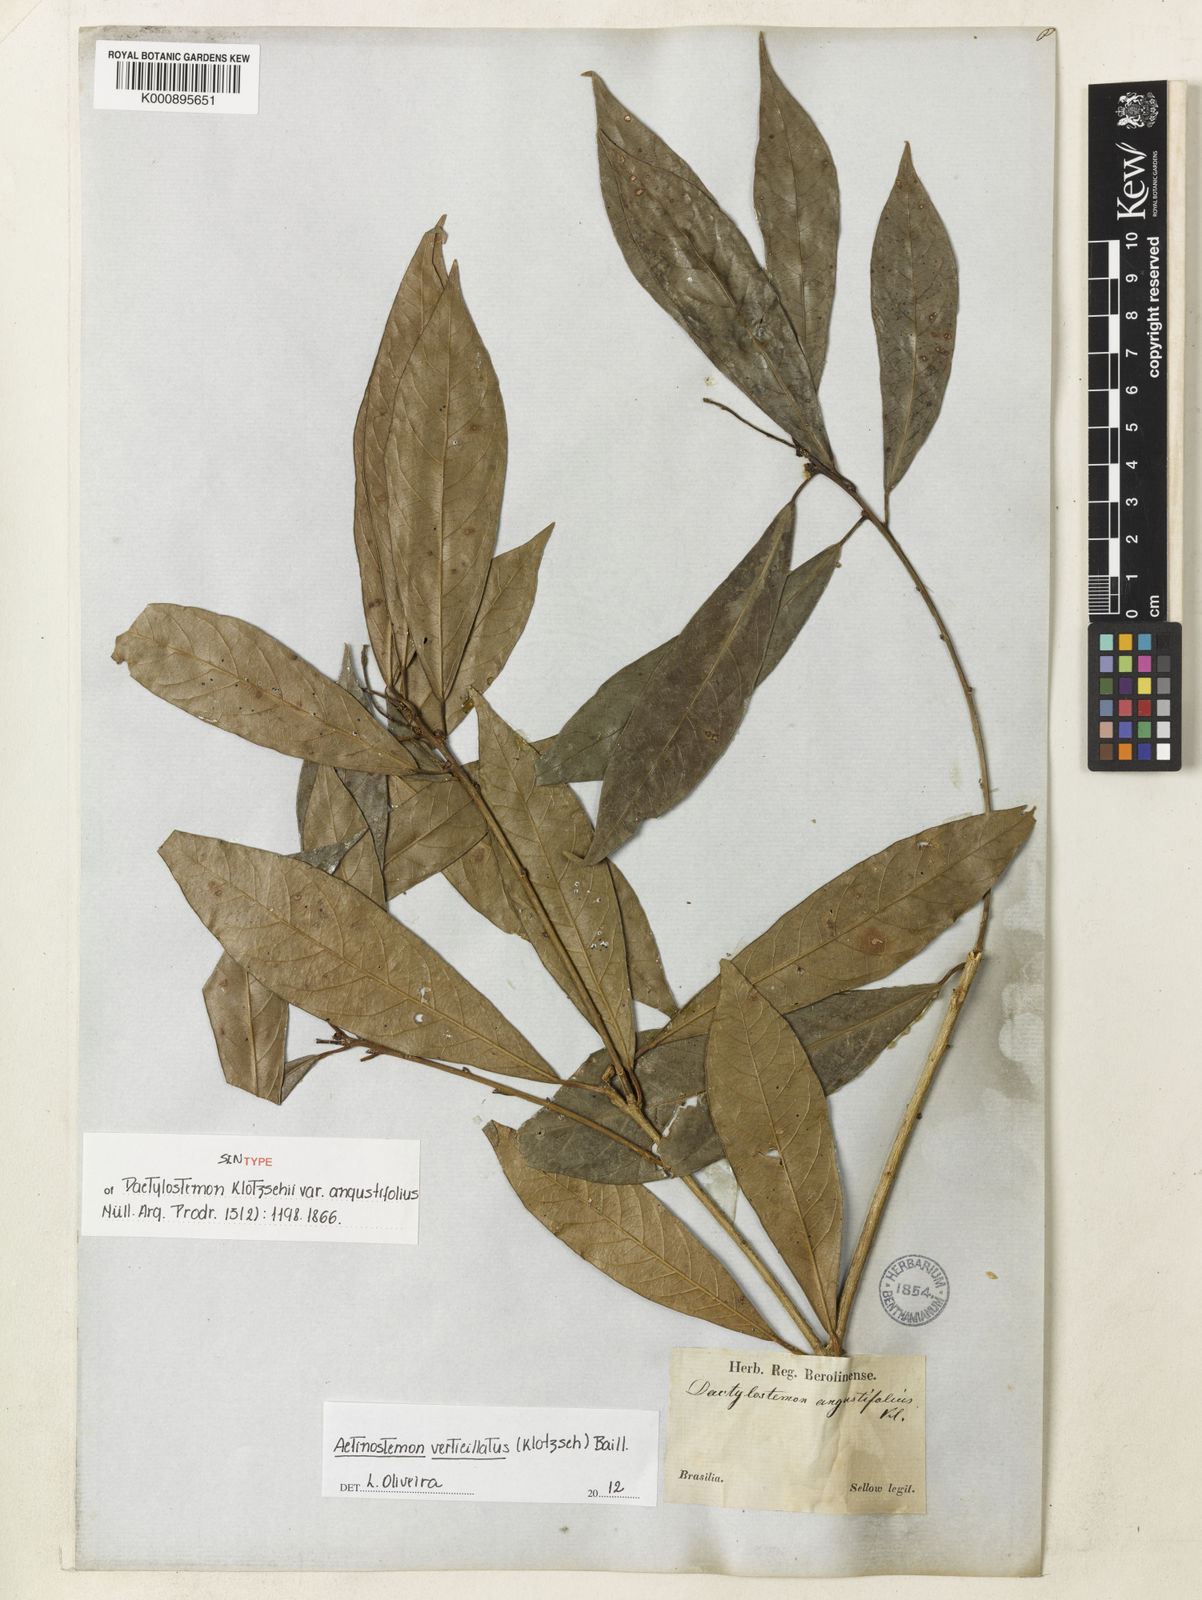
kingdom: Plantae
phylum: Tracheophyta
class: Magnoliopsida
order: Malpighiales
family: Euphorbiaceae
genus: Actinostemon
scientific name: Actinostemon verticillatus
